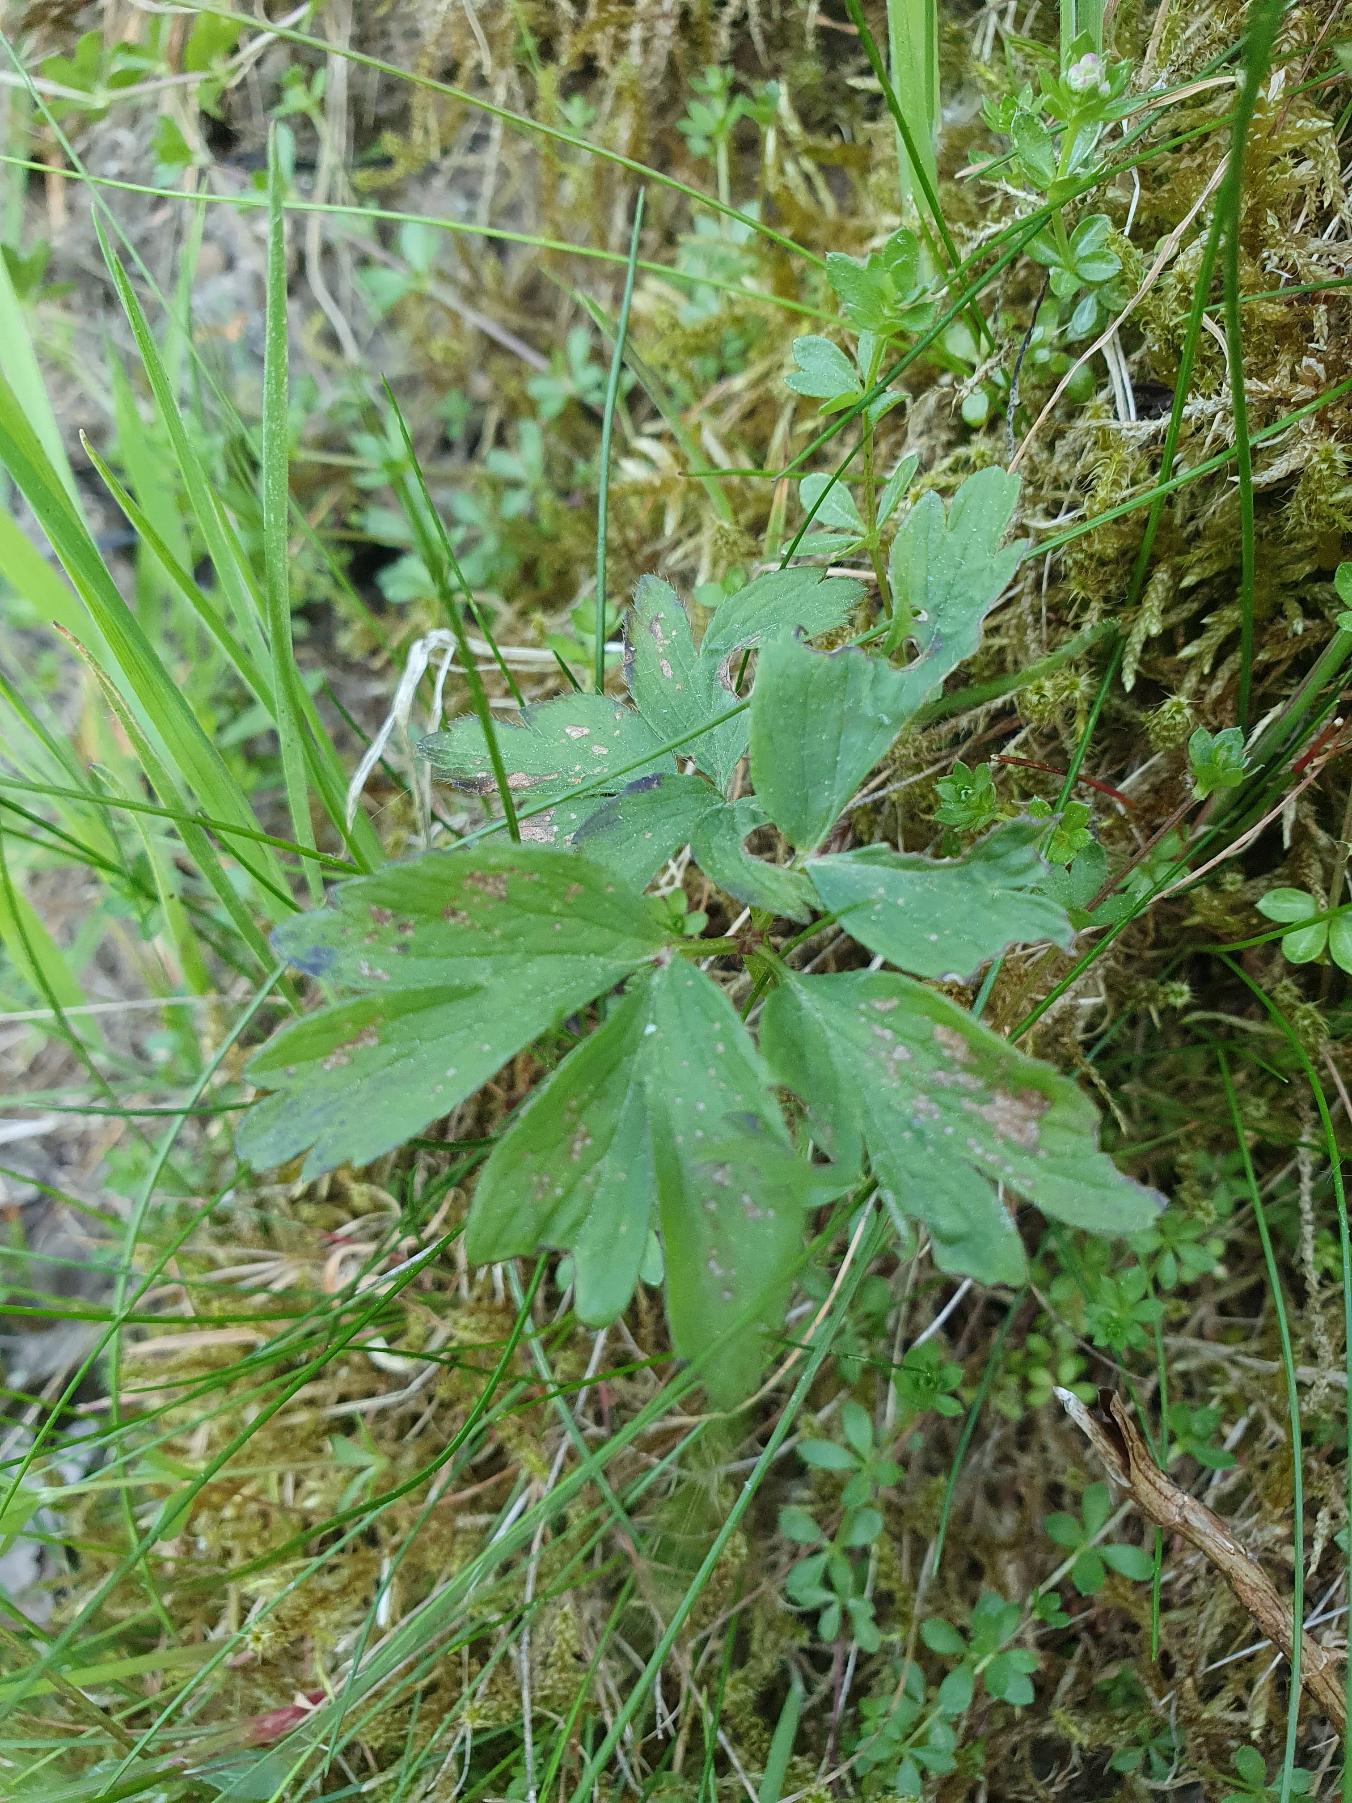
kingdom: Plantae
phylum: Tracheophyta
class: Magnoliopsida
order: Ranunculales
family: Ranunculaceae
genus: Anemone
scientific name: Anemone nemorosa
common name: Hvid anemone
